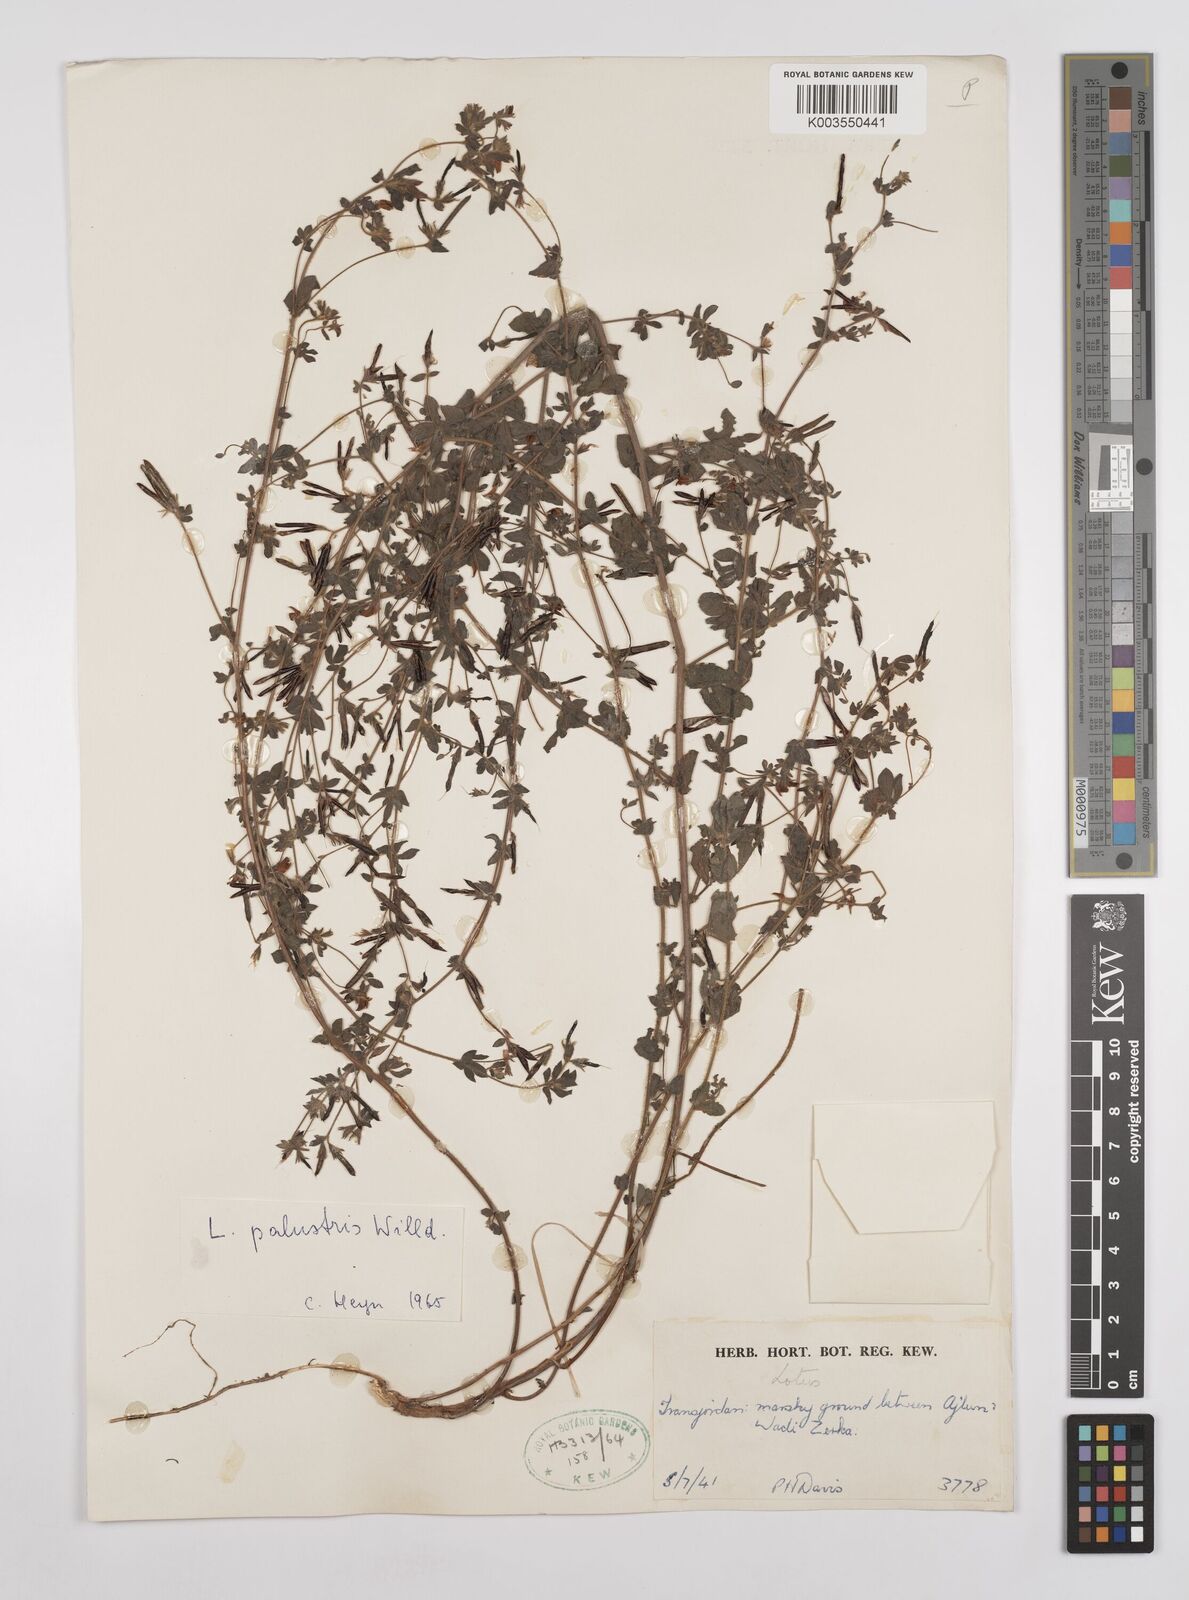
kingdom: Plantae
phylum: Tracheophyta
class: Magnoliopsida
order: Fabales
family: Fabaceae
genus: Lotus
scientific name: Lotus palustris
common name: Large birds-foot trefoil
